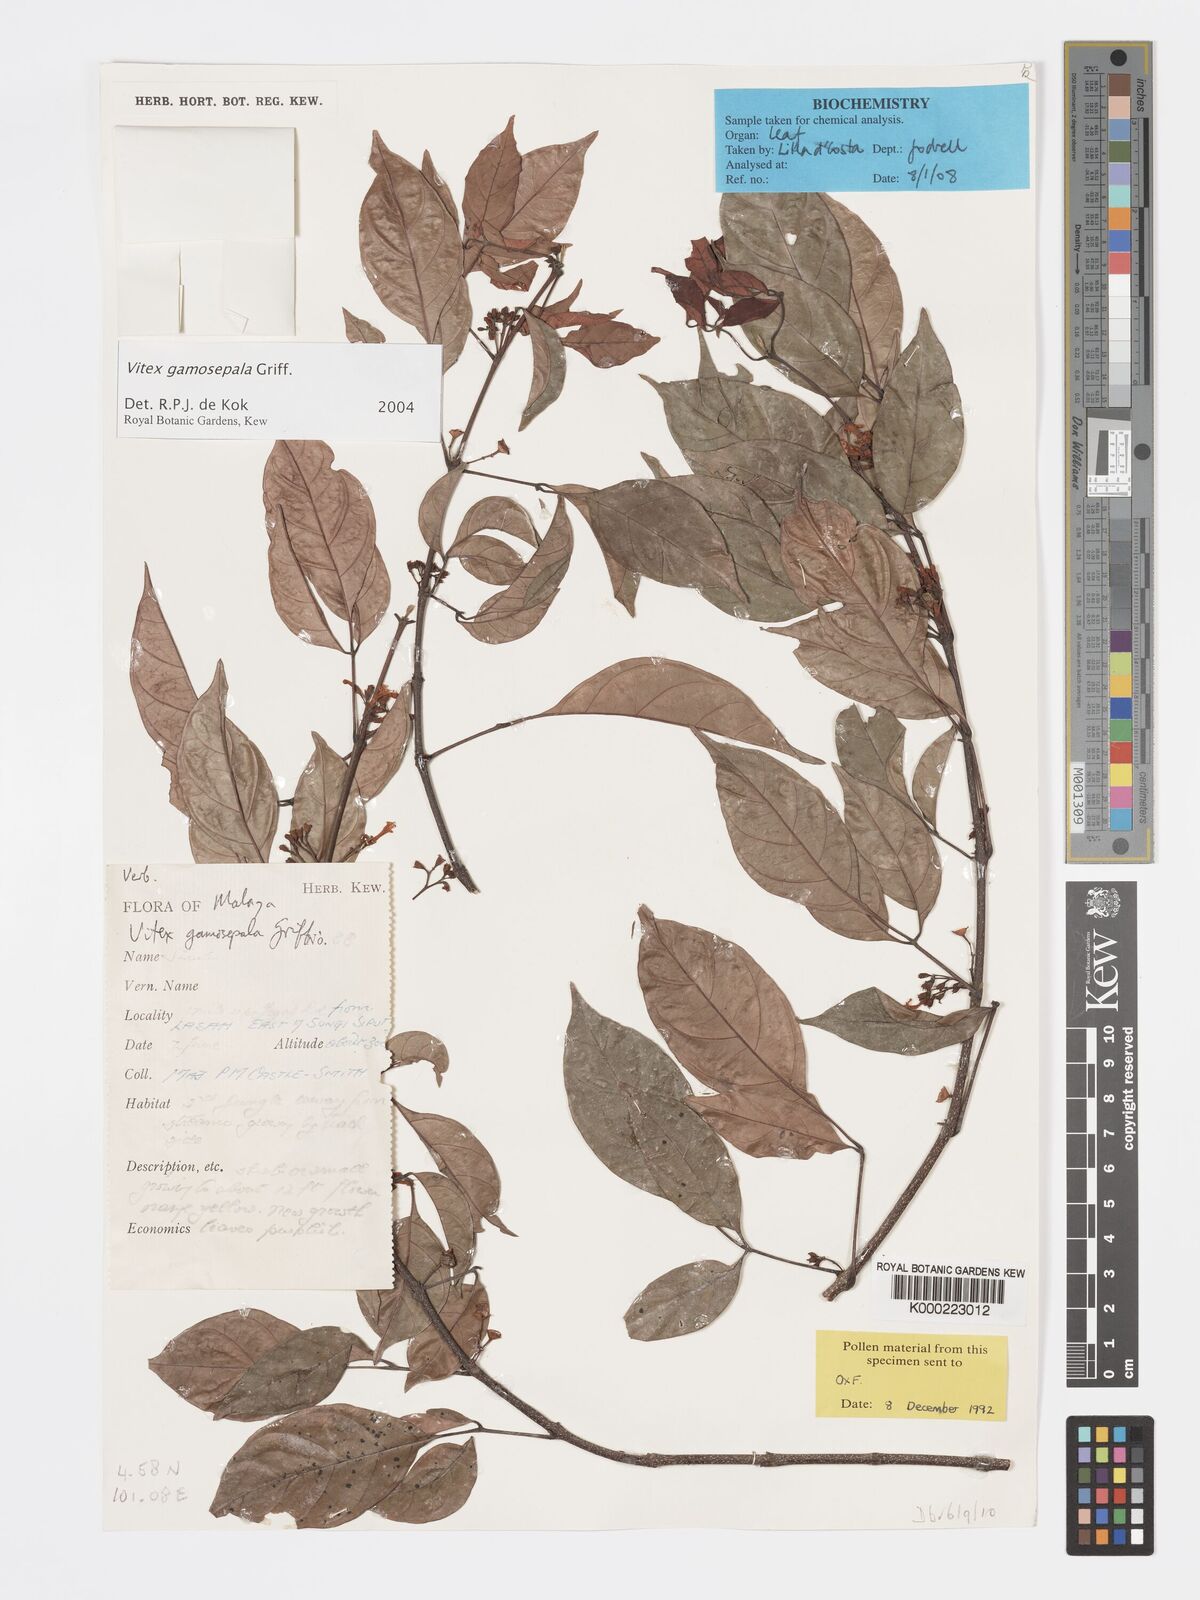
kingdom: Plantae
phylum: Tracheophyta
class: Magnoliopsida
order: Lamiales
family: Lamiaceae
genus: Vitex
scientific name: Vitex gamosepala
